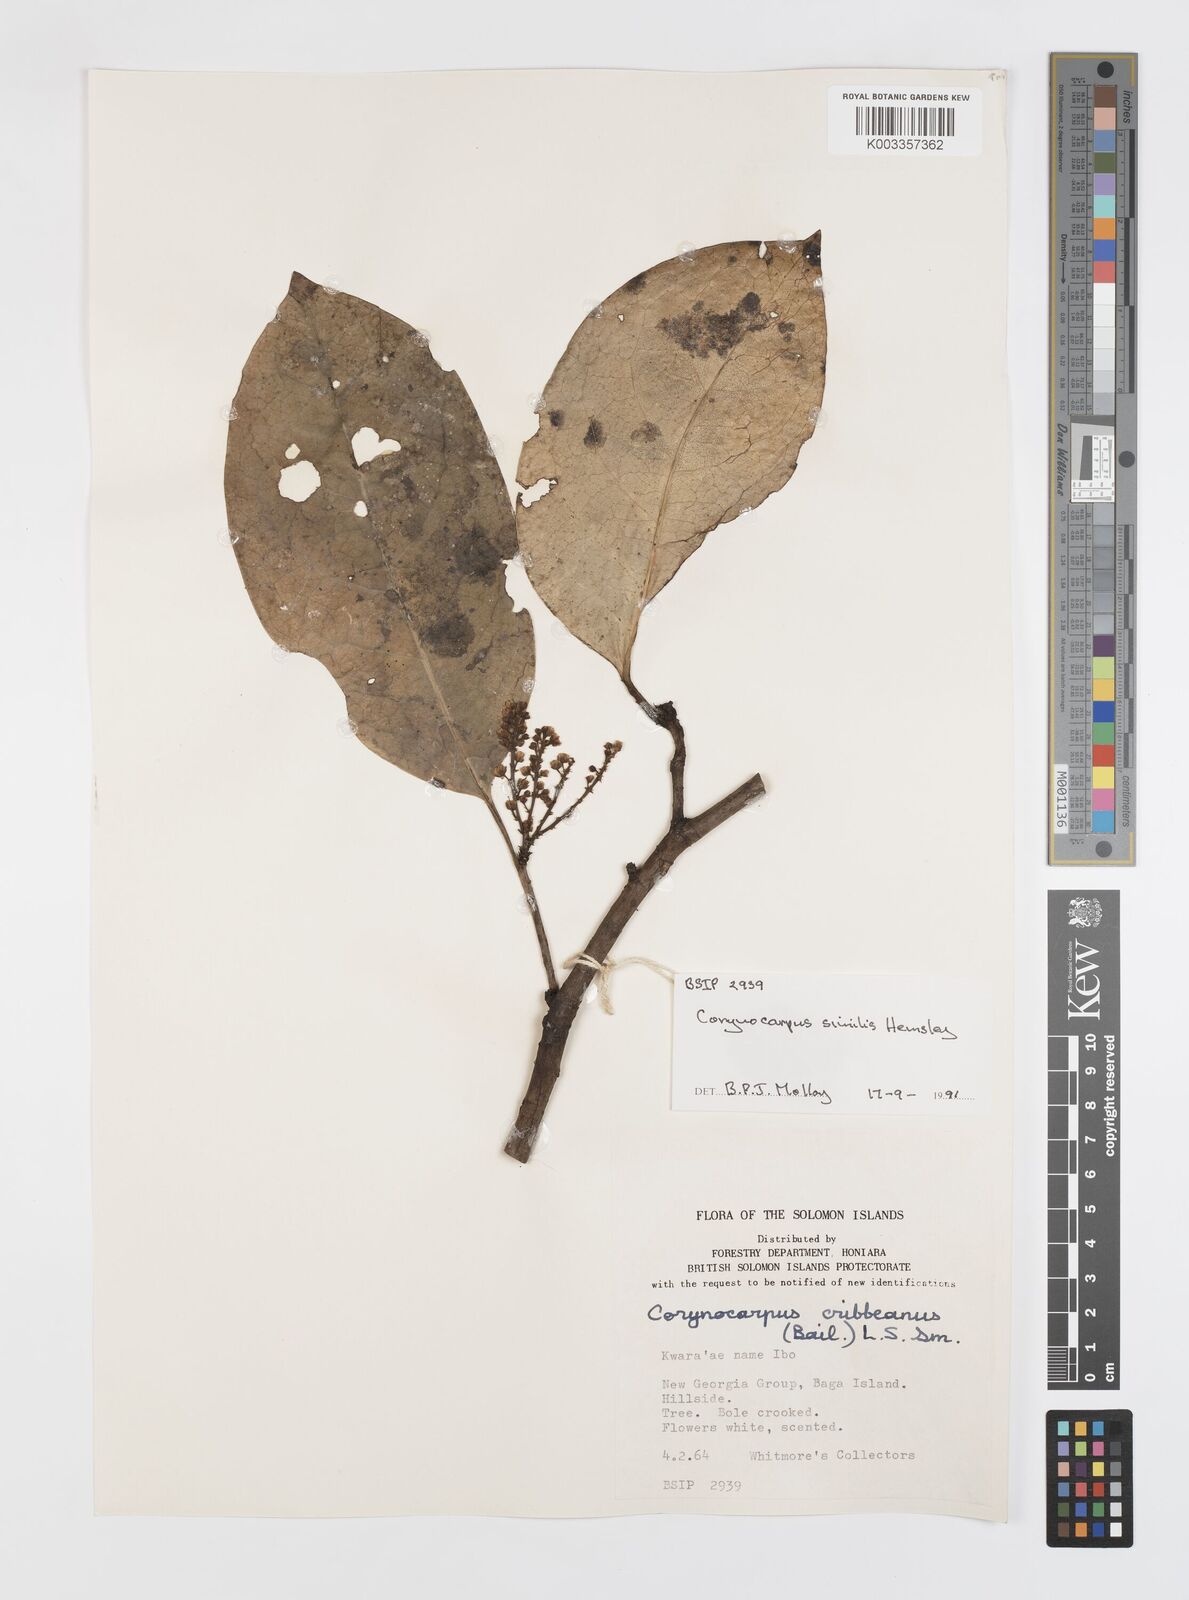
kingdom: Plantae
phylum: Tracheophyta
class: Magnoliopsida
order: Cucurbitales
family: Corynocarpaceae
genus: Corynocarpus
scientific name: Corynocarpus similis
